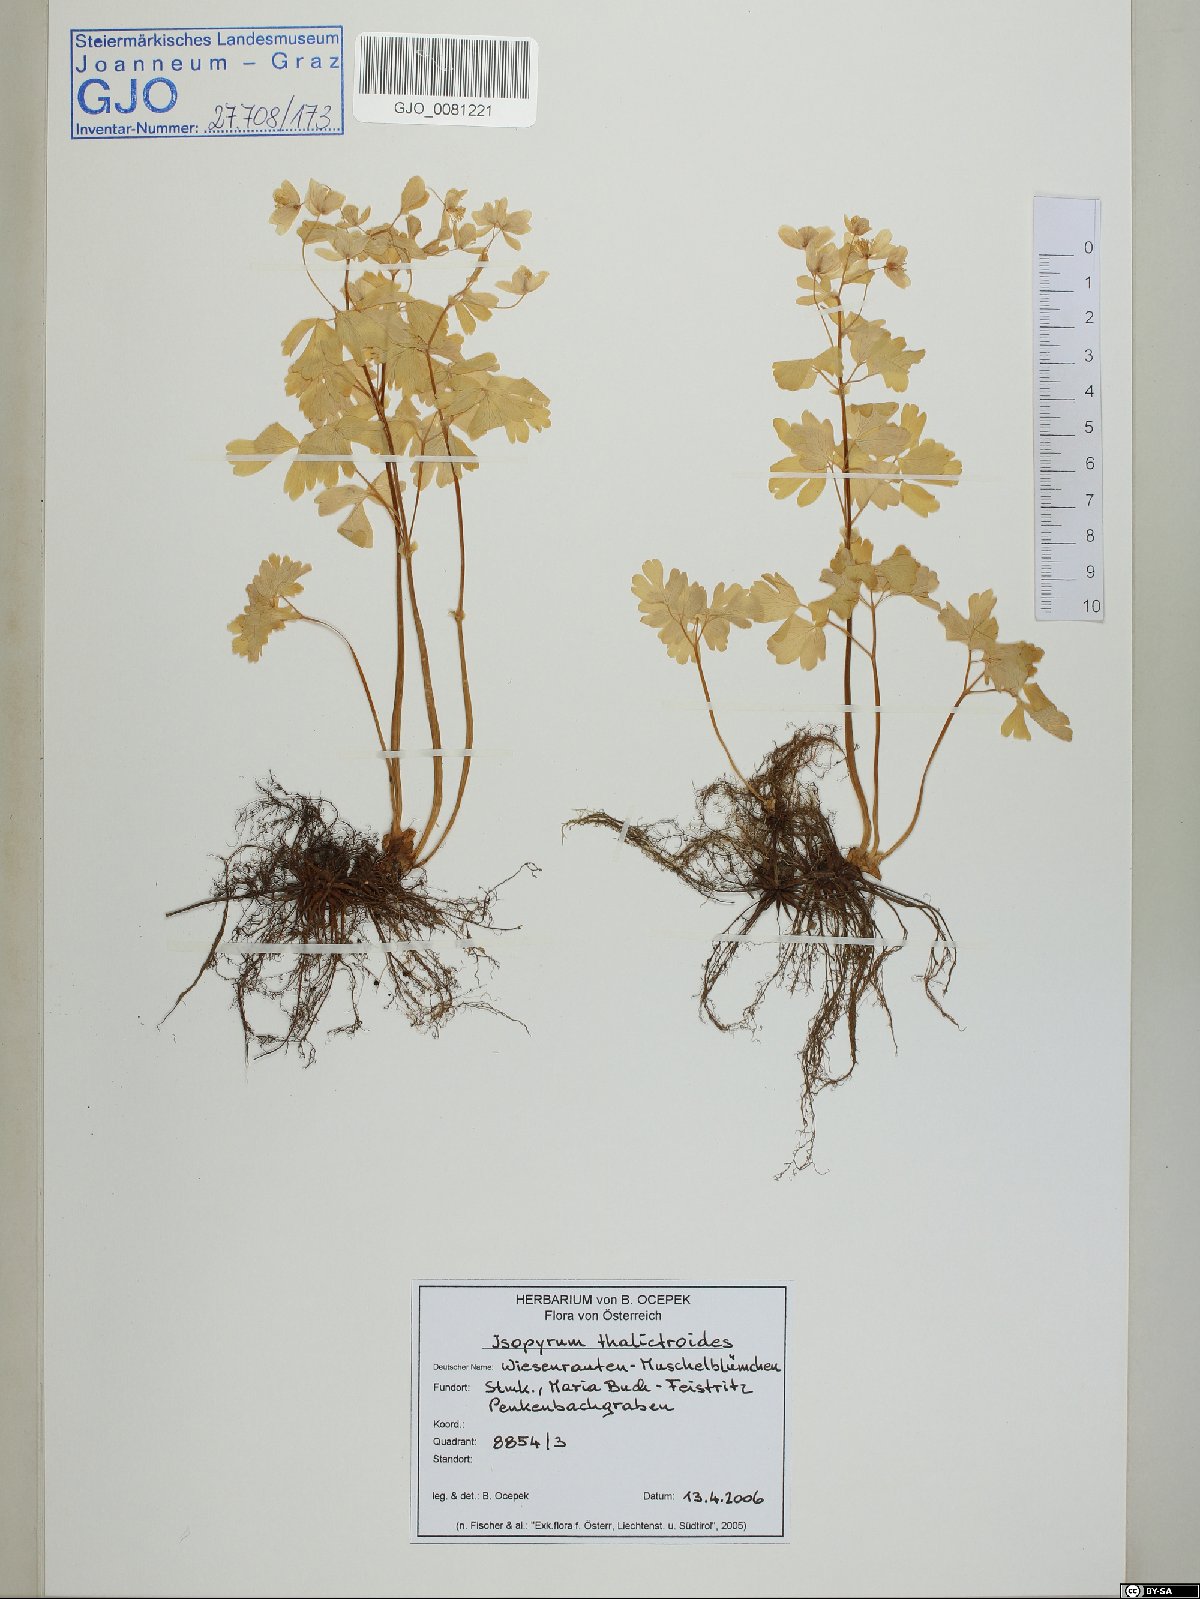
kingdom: Plantae
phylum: Tracheophyta
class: Magnoliopsida
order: Ranunculales
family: Ranunculaceae
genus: Isopyrum
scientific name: Isopyrum thalictroides
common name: Isopyrum
